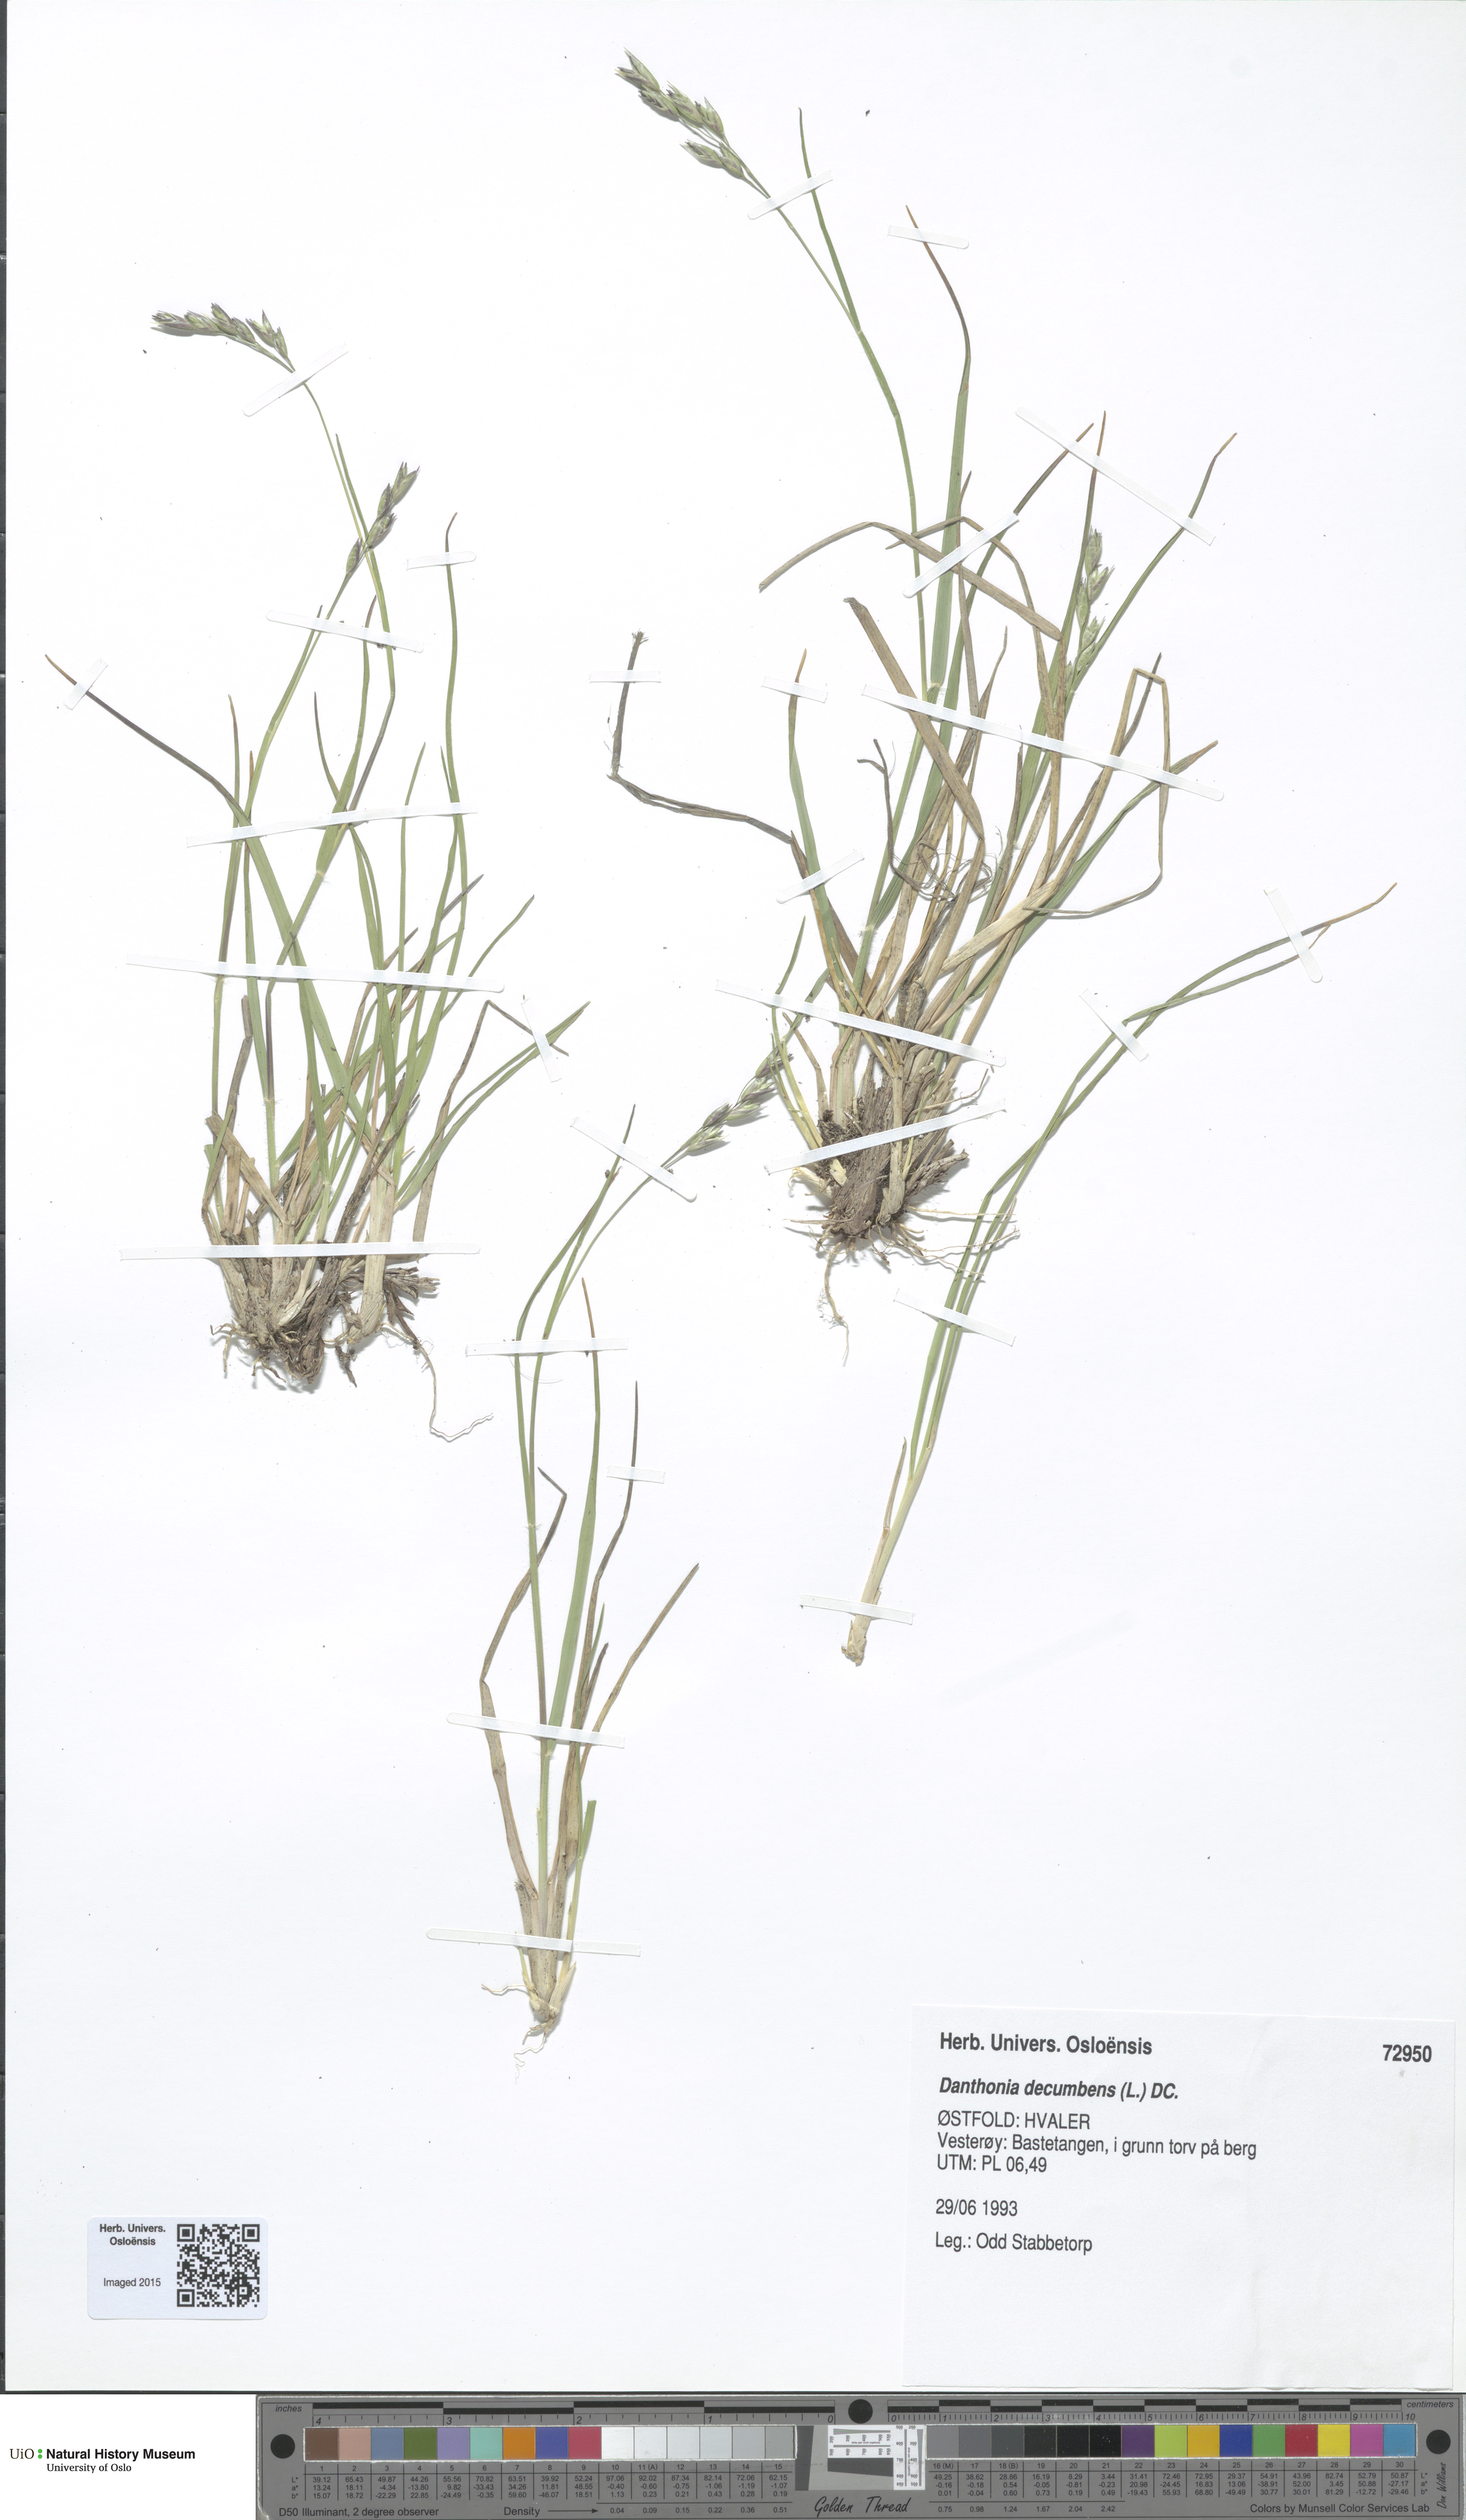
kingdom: Plantae
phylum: Tracheophyta
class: Liliopsida
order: Poales
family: Poaceae
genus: Danthonia
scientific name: Danthonia decumbens
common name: Common heathgrass
